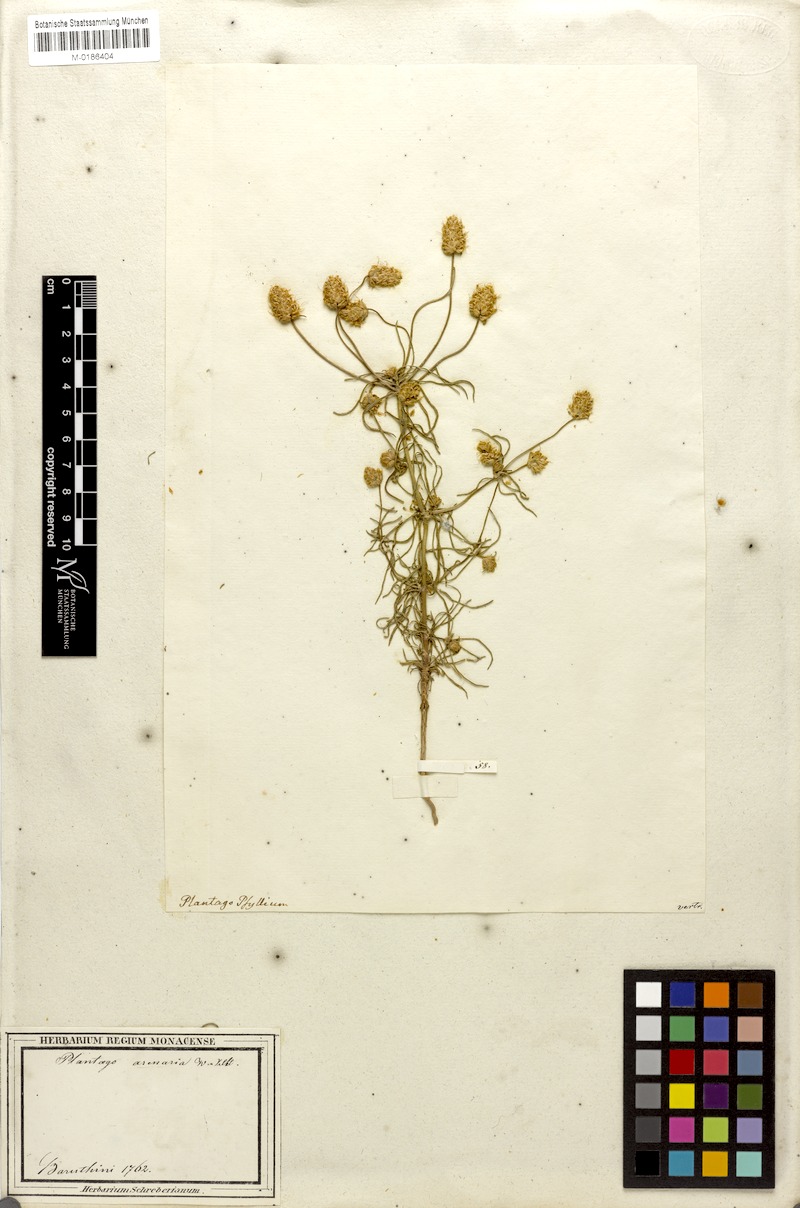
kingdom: Plantae
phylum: Tracheophyta
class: Magnoliopsida
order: Lamiales
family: Plantaginaceae
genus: Plantago
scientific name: Plantago arenaria
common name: Branched plantain
